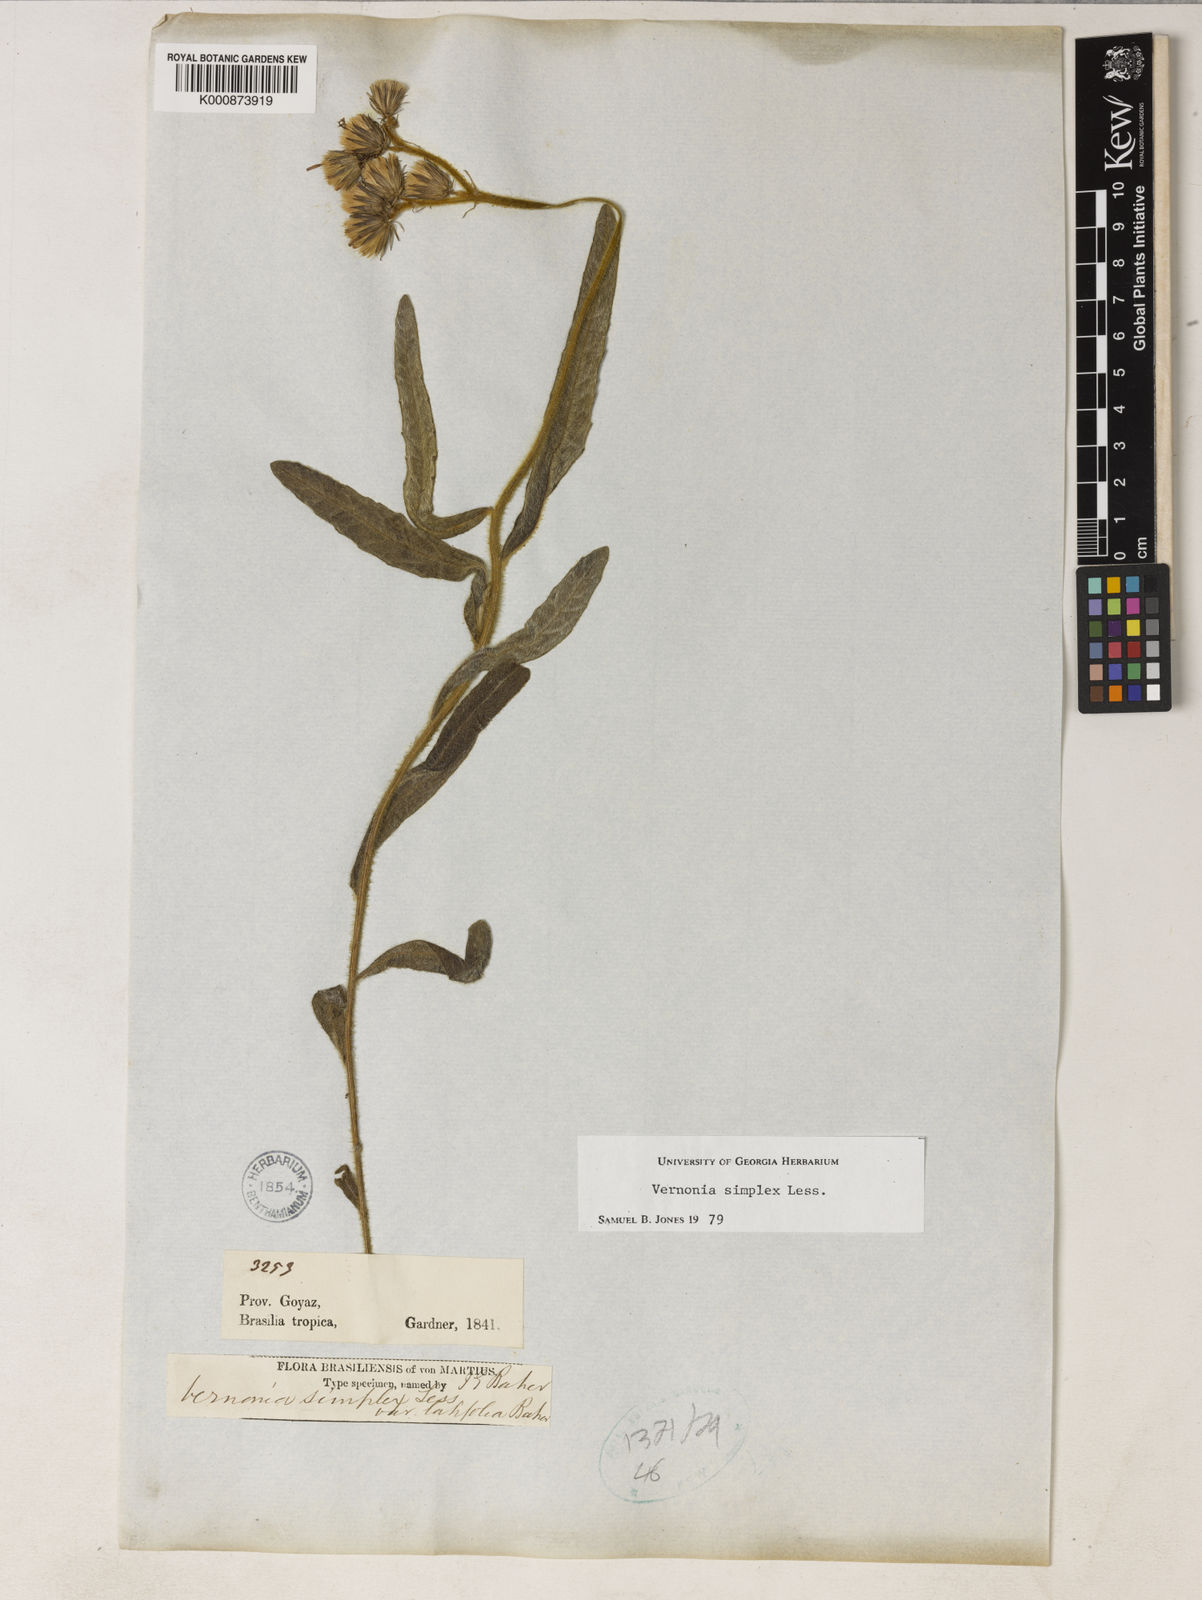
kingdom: Plantae
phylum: Tracheophyta
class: Magnoliopsida
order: Asterales
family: Asteraceae
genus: Chrysolaena
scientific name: Chrysolaena simplex
